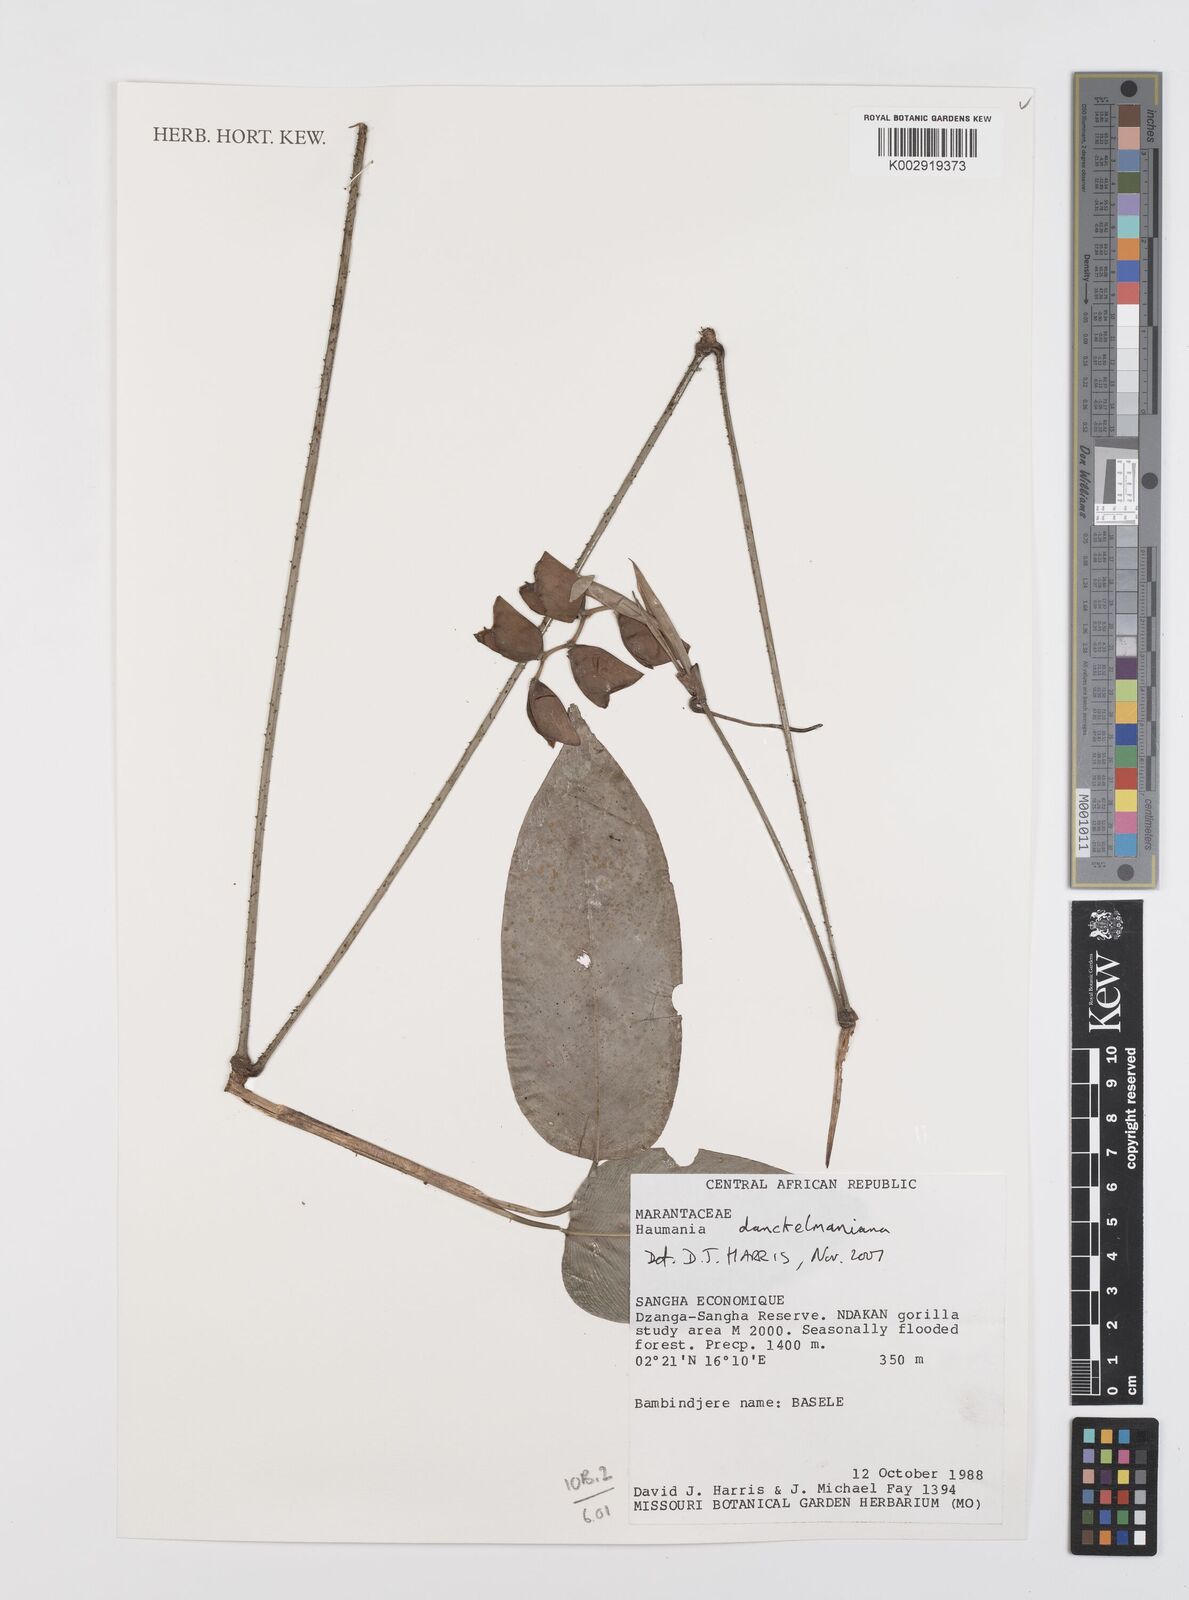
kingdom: Plantae
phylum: Tracheophyta
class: Liliopsida
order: Zingiberales
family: Marantaceae
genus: Haumania
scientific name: Haumania danckelmaniana
